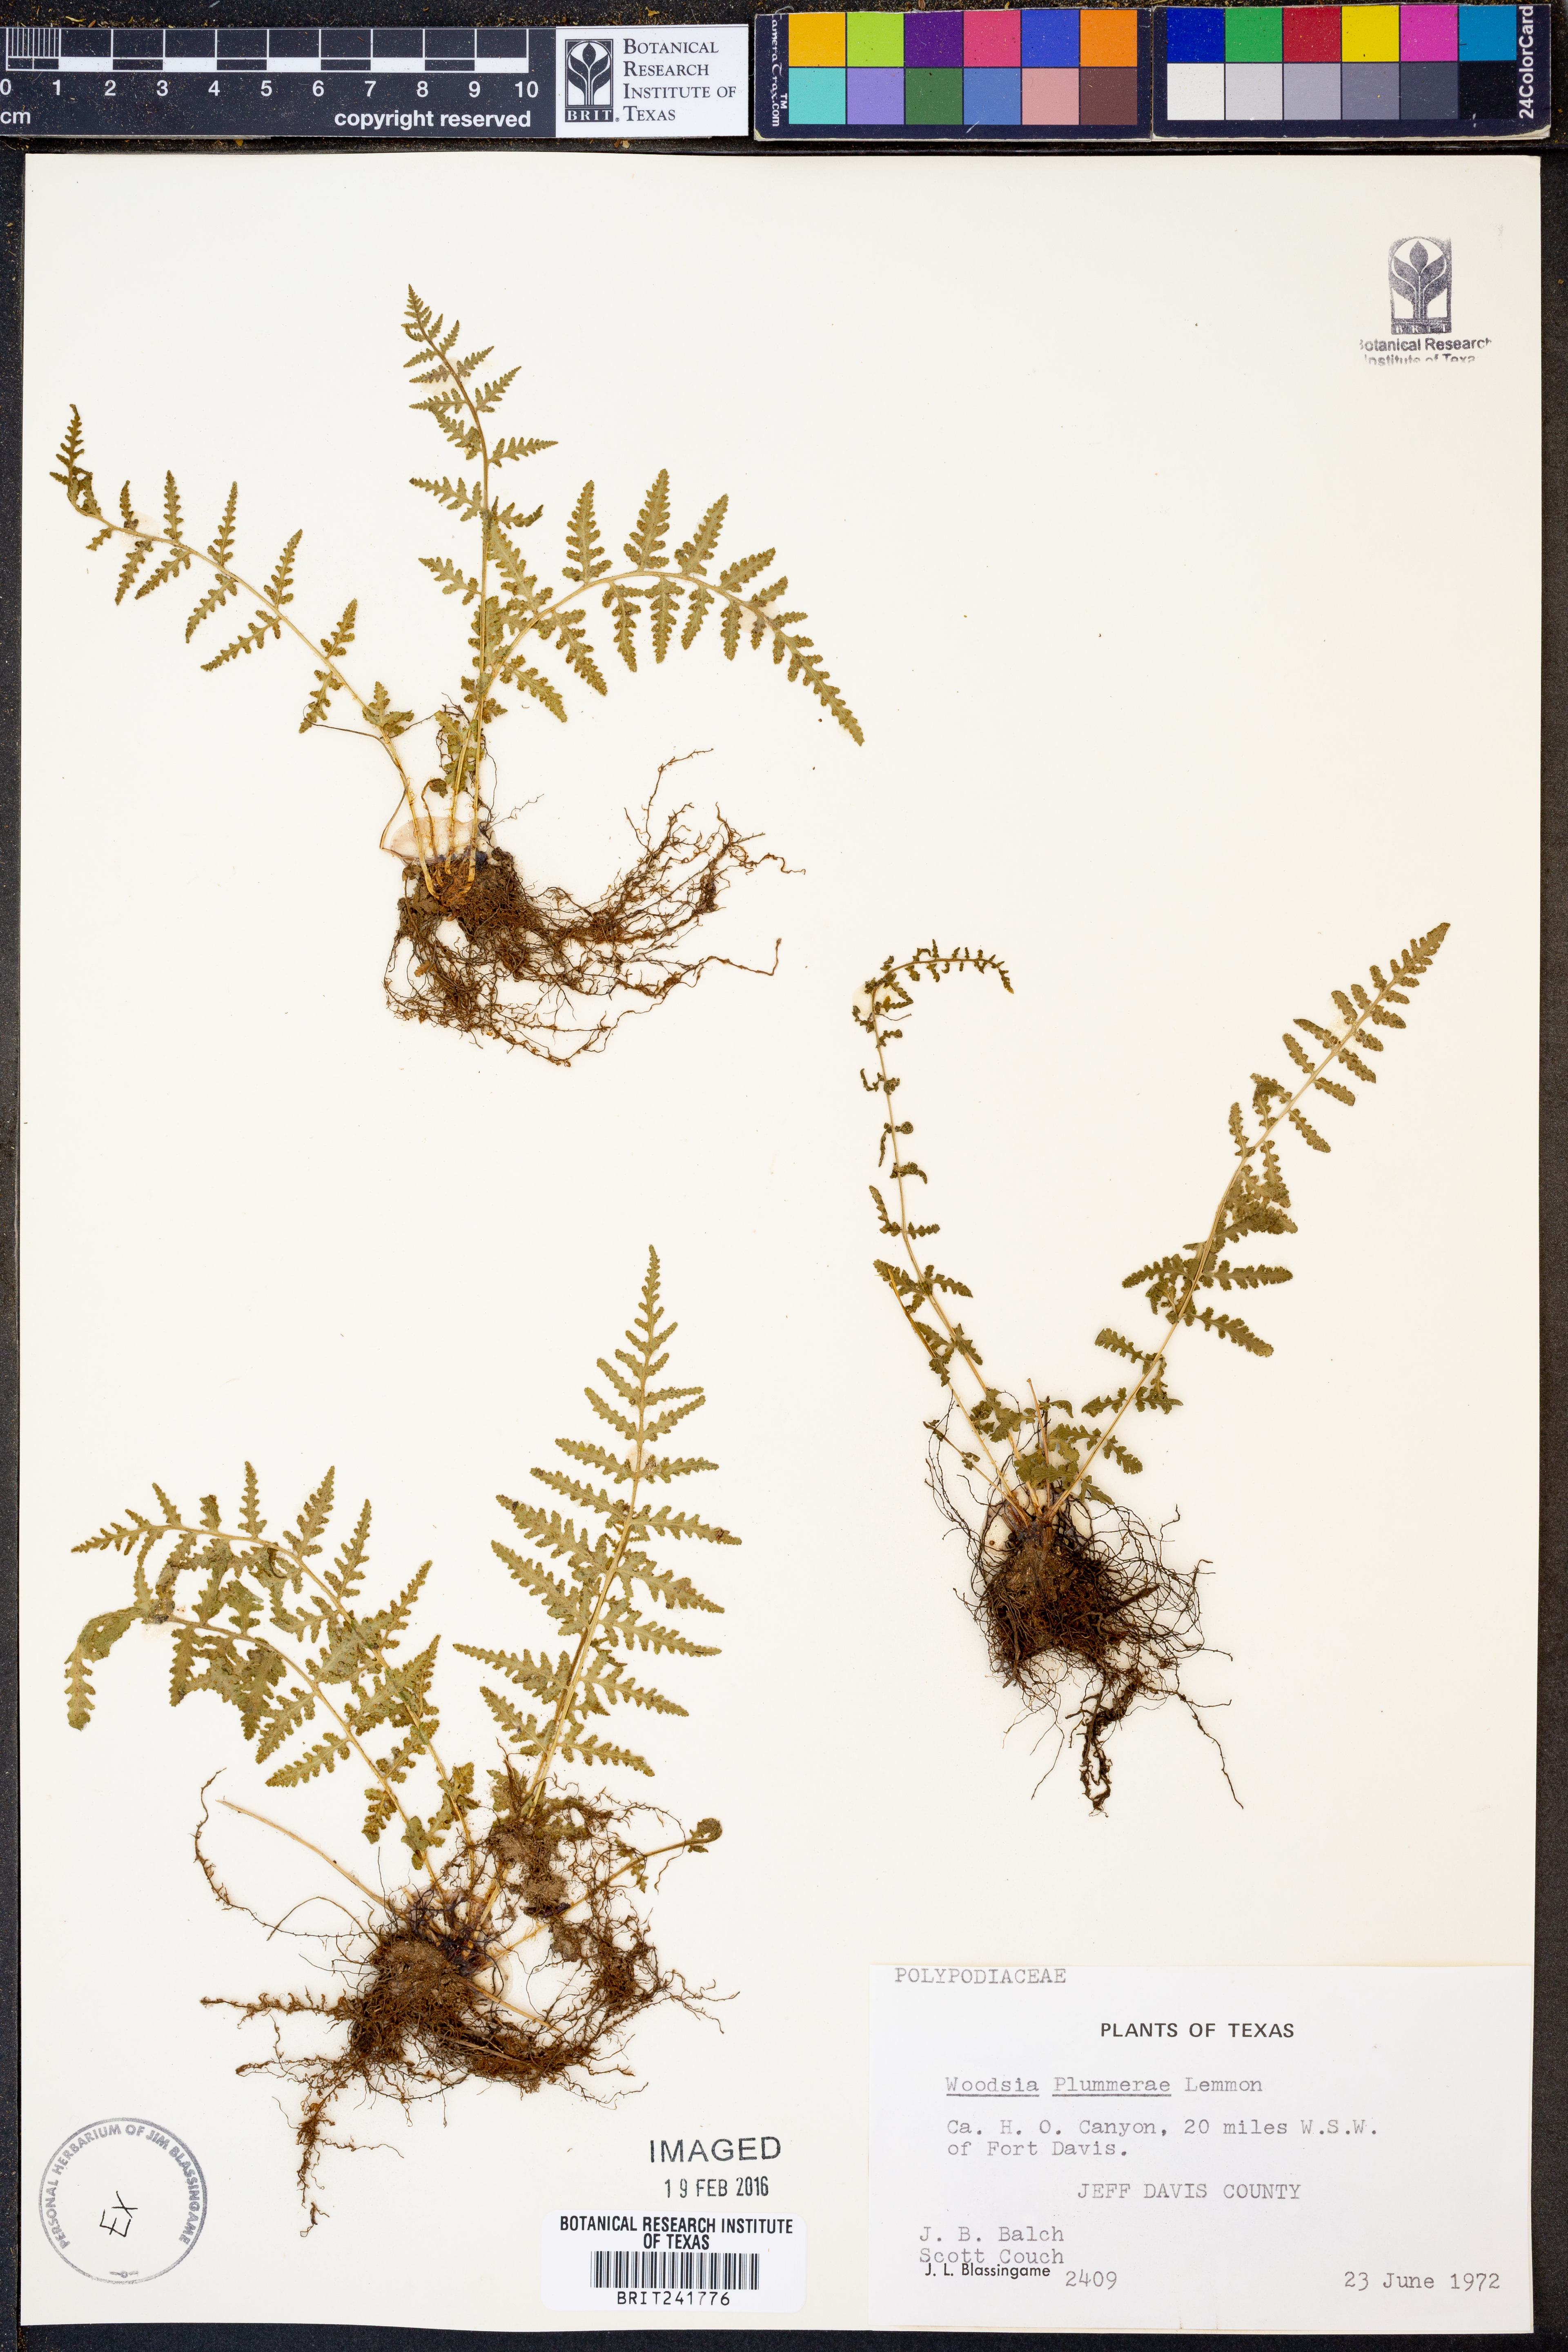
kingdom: Plantae
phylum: Tracheophyta
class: Polypodiopsida
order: Polypodiales
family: Woodsiaceae
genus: Physematium
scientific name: Physematium plummerae
